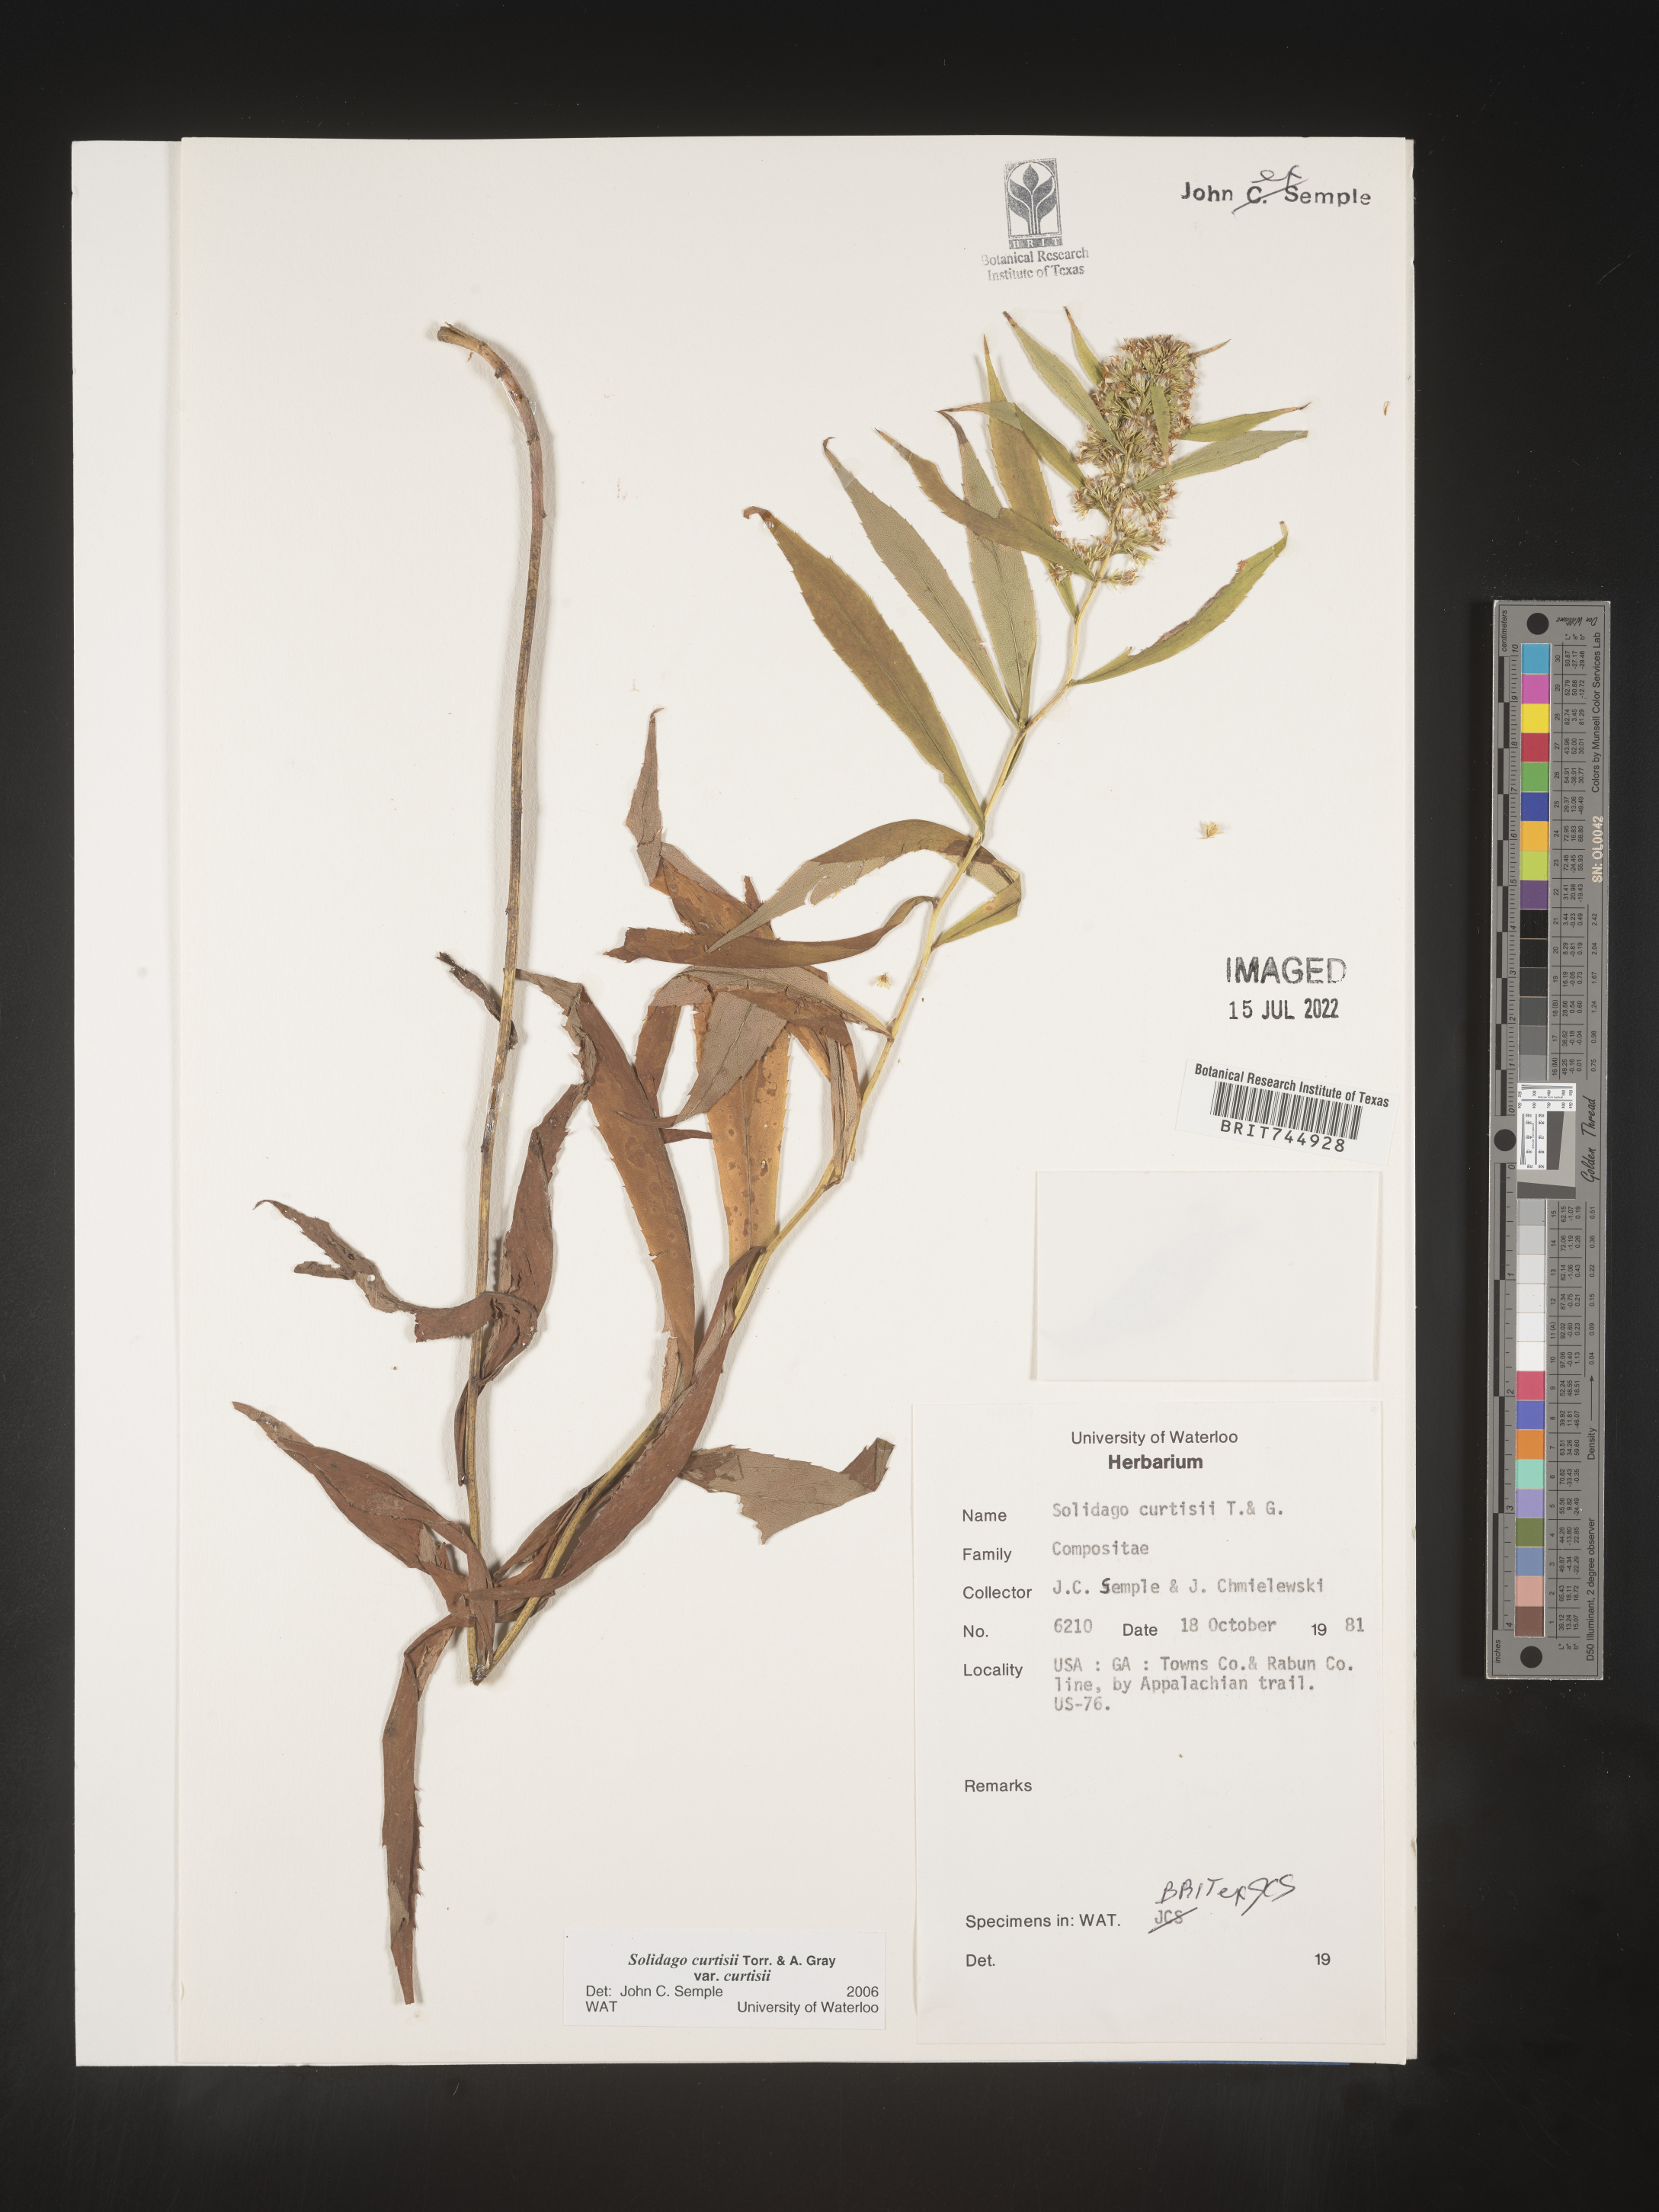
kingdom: Plantae
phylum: Tracheophyta
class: Magnoliopsida
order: Asterales
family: Asteraceae
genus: Solidago
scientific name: Solidago
